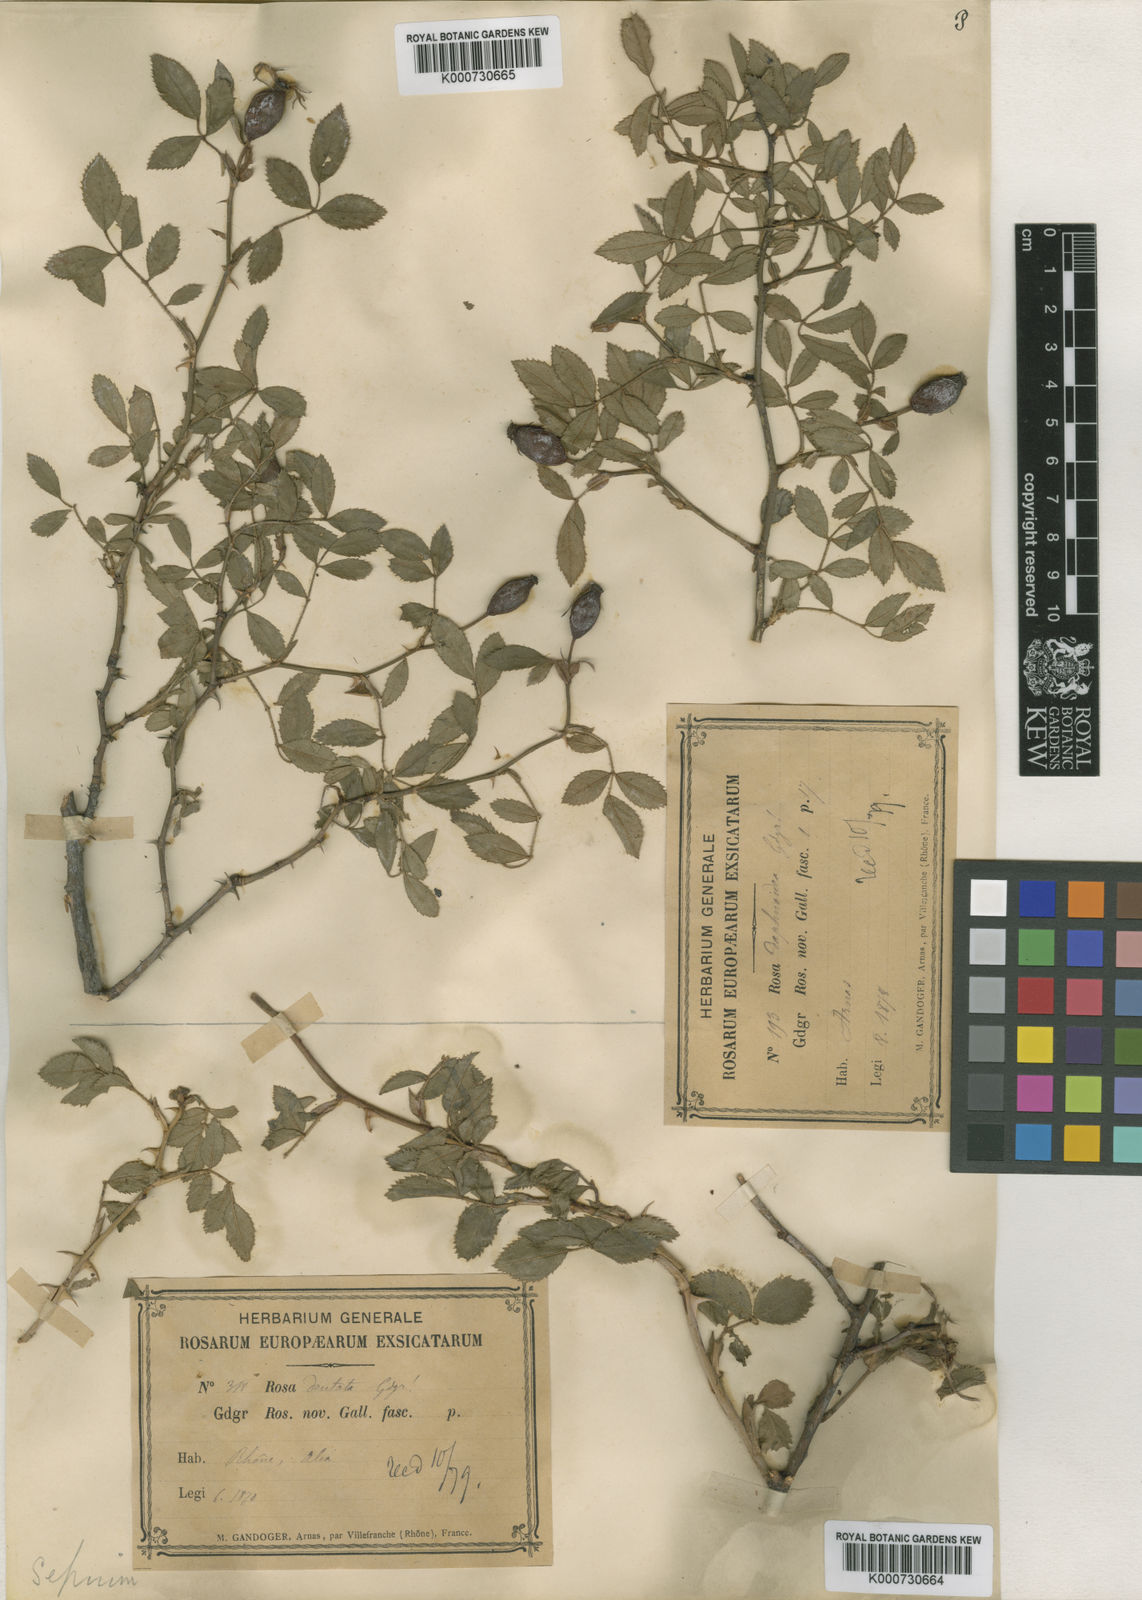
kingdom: Plantae
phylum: Tracheophyta
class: Magnoliopsida
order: Rosales
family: Rosaceae
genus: Rosa
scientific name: Rosa agrestis
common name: Fieldbriar
